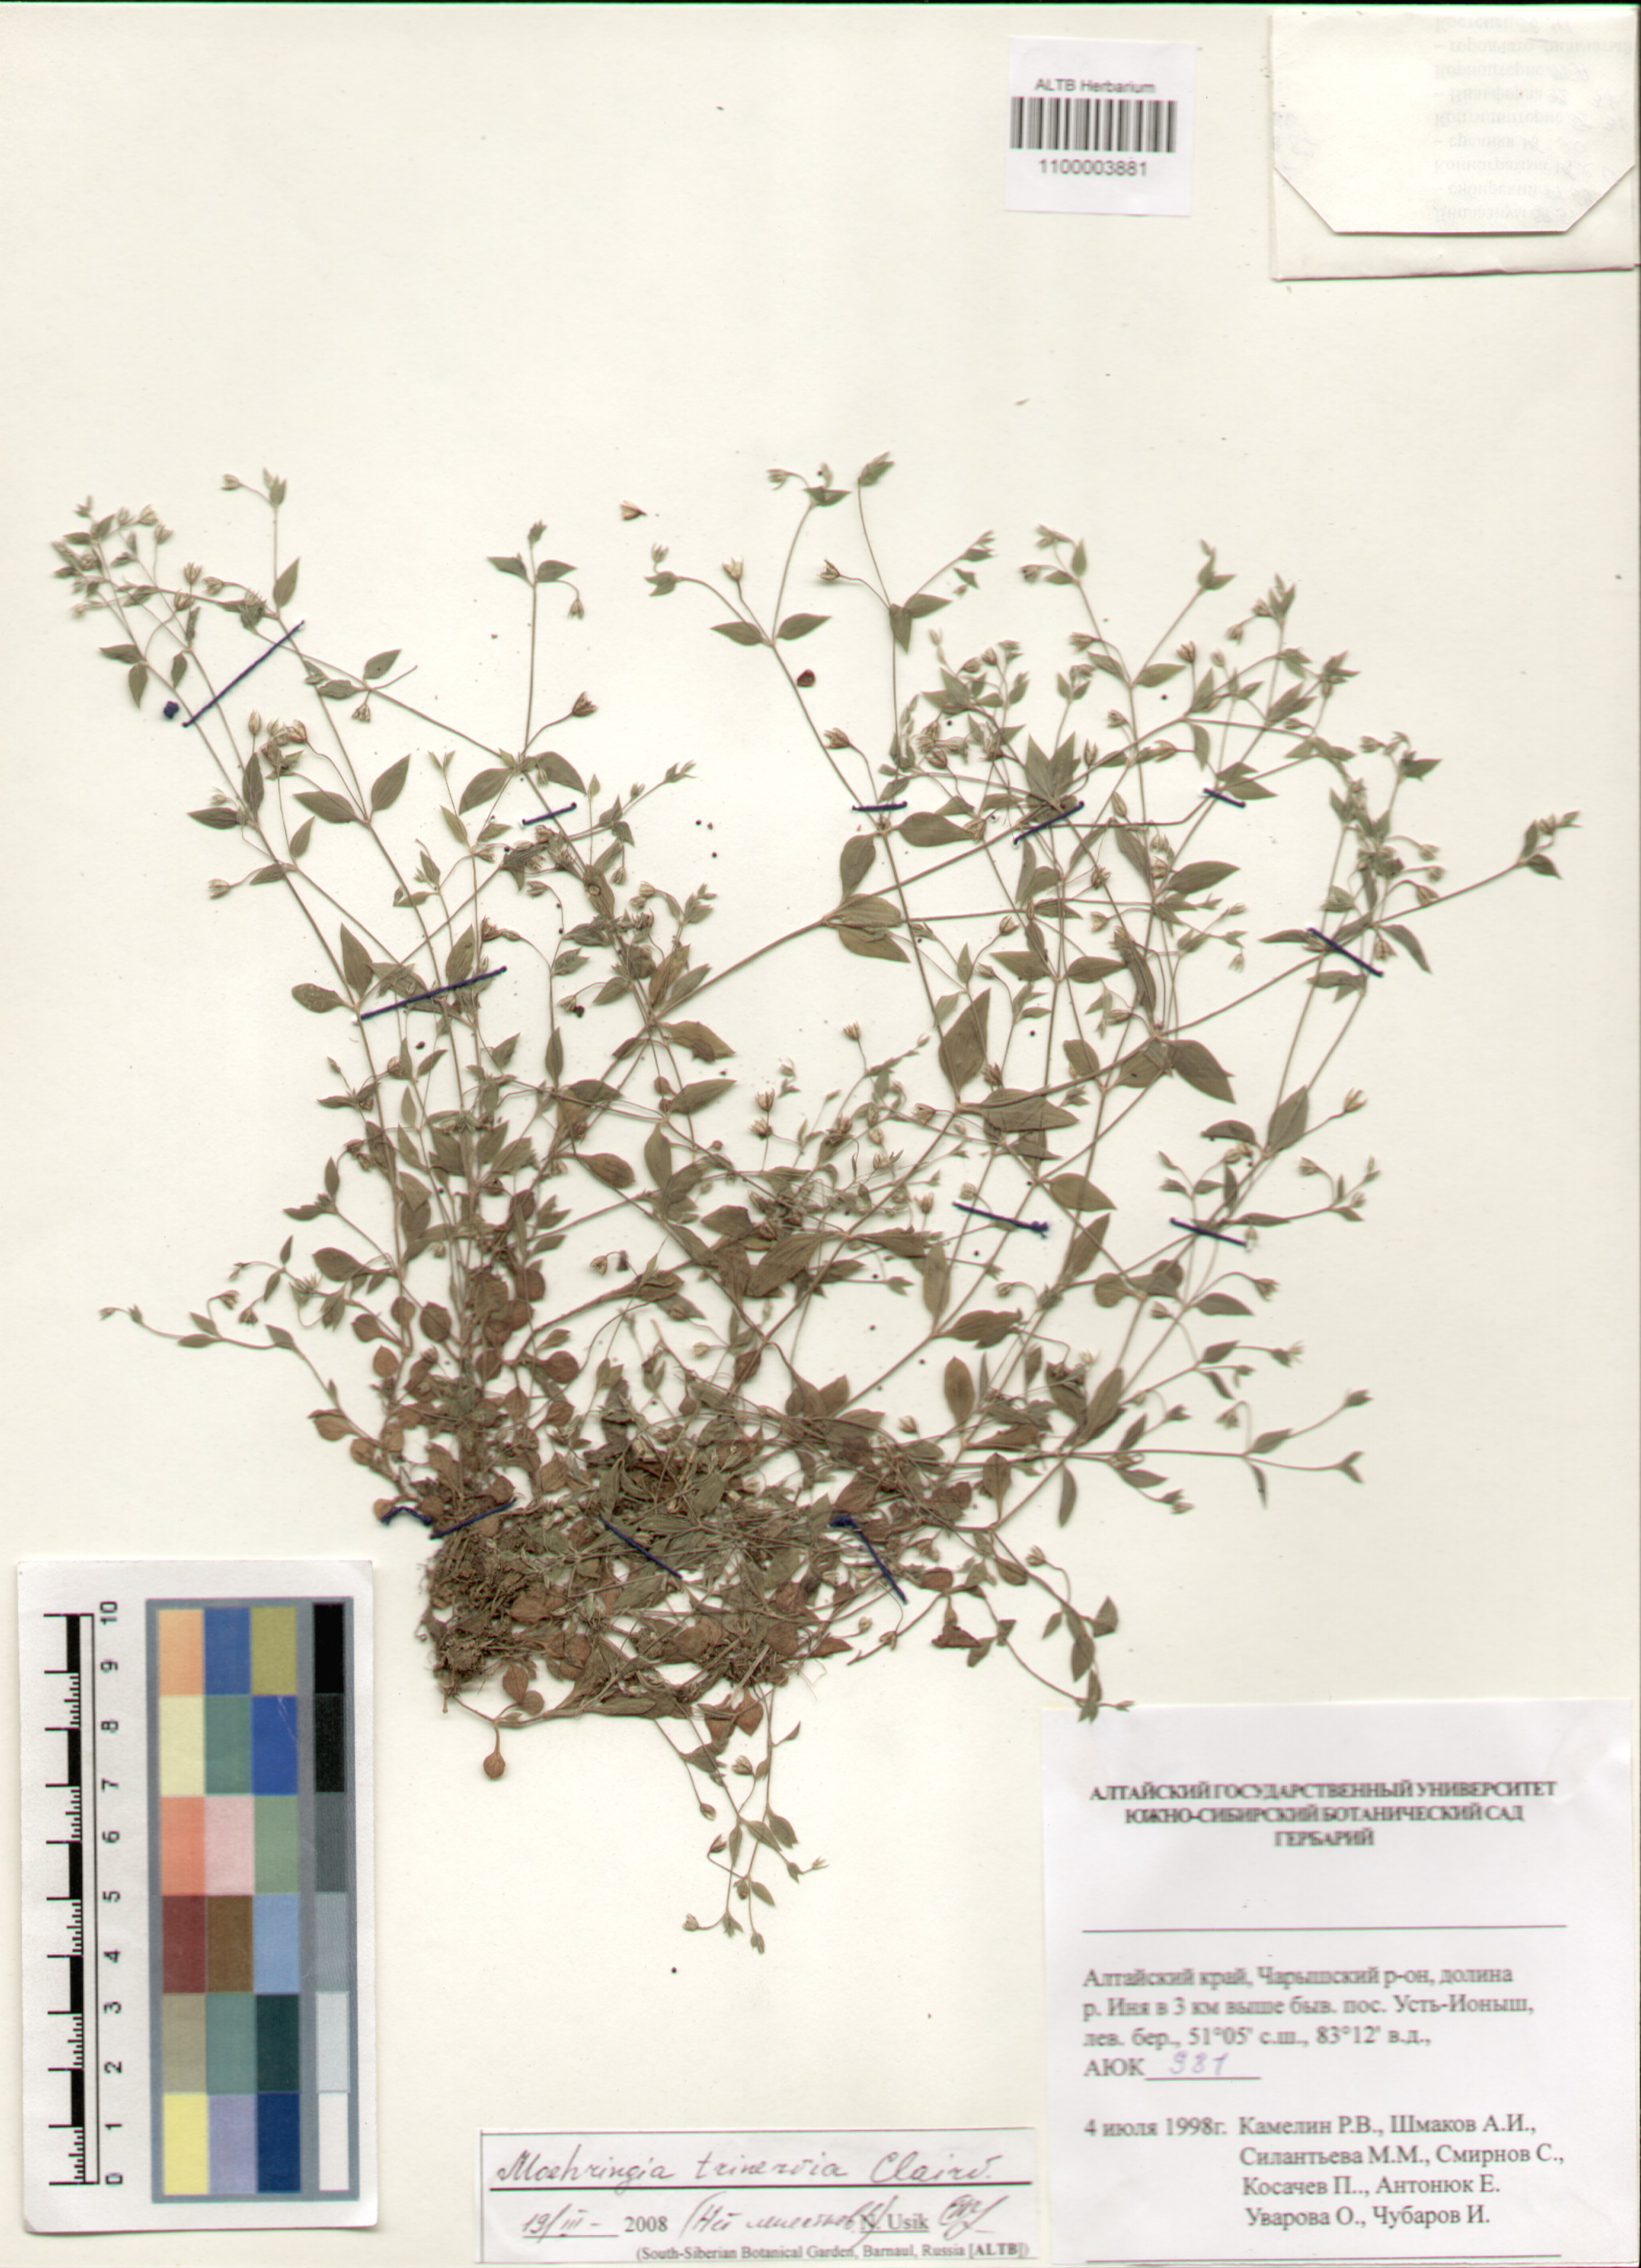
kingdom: Plantae
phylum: Tracheophyta
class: Magnoliopsida
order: Caryophyllales
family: Caryophyllaceae
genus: Moehringia
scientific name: Moehringia trinervia
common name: Three-nerved sandwort
